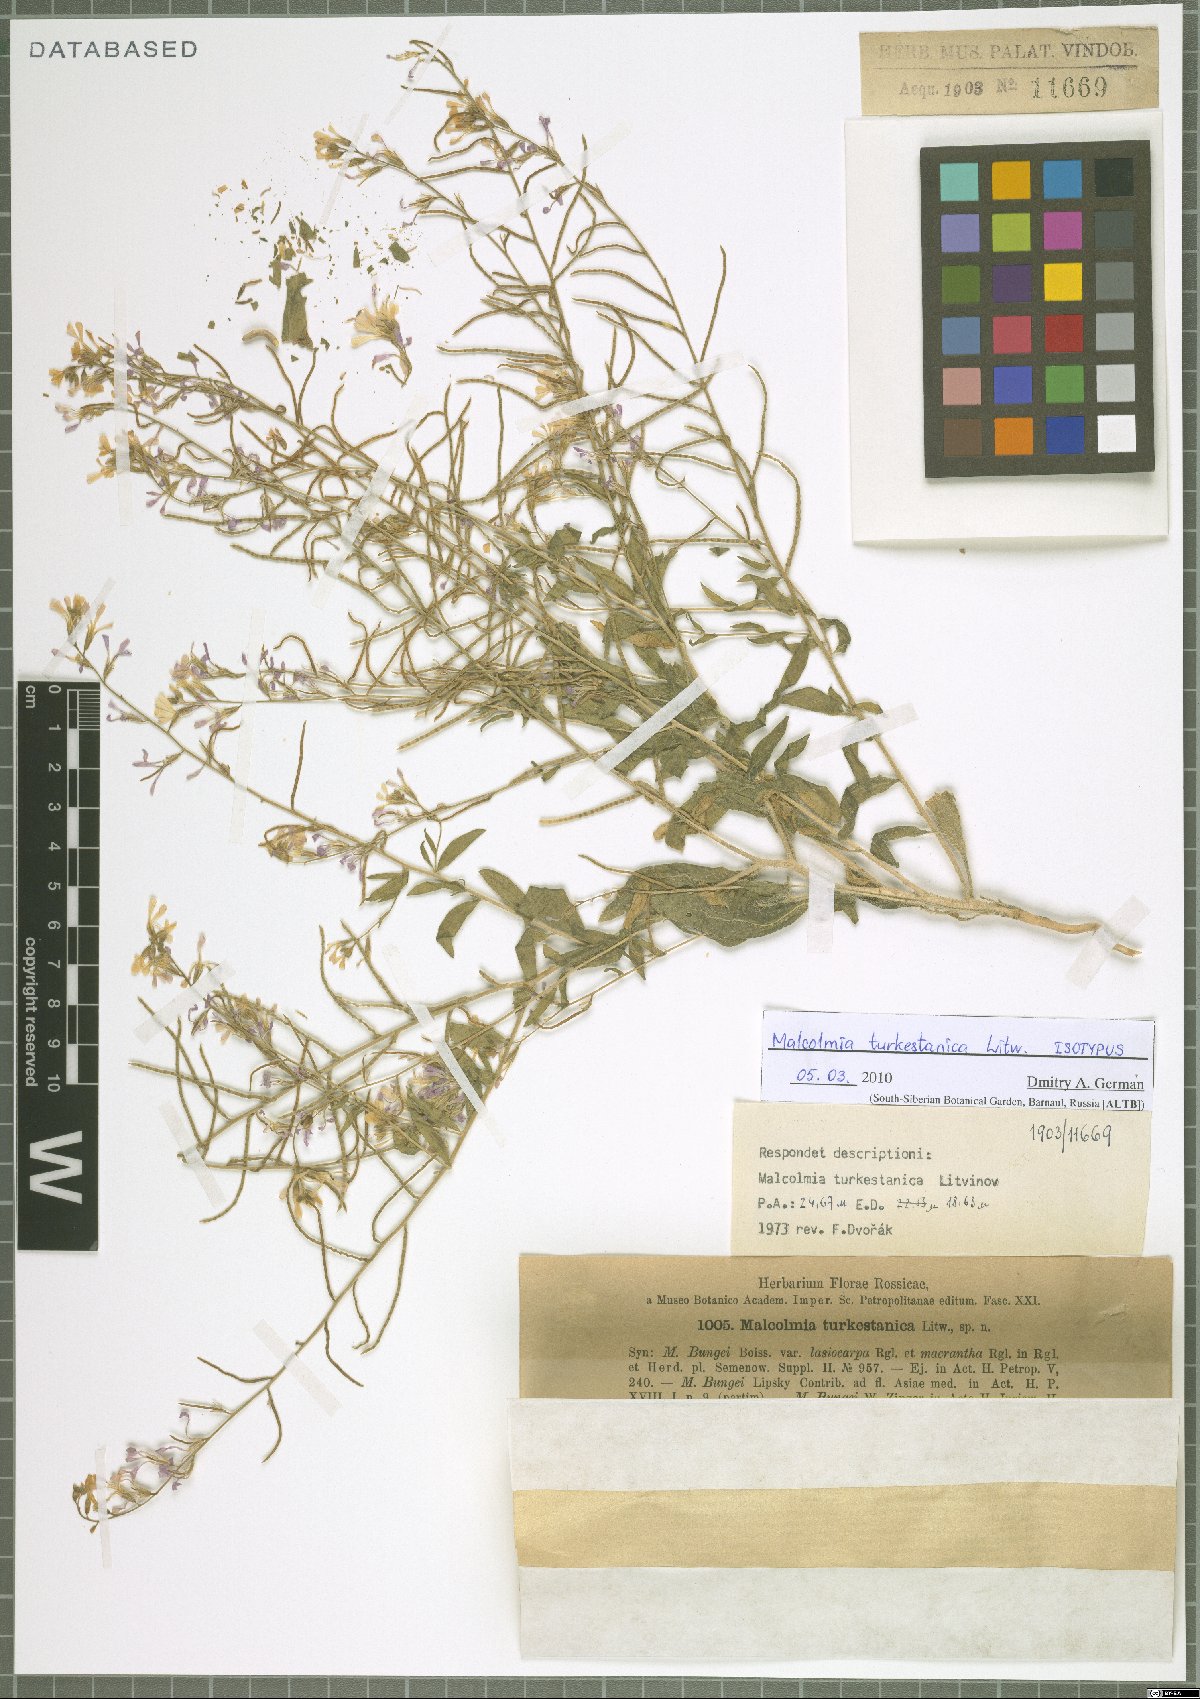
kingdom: Plantae
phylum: Tracheophyta
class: Magnoliopsida
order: Brassicales
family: Brassicaceae
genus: Strigosella
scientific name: Strigosella turkestanica
